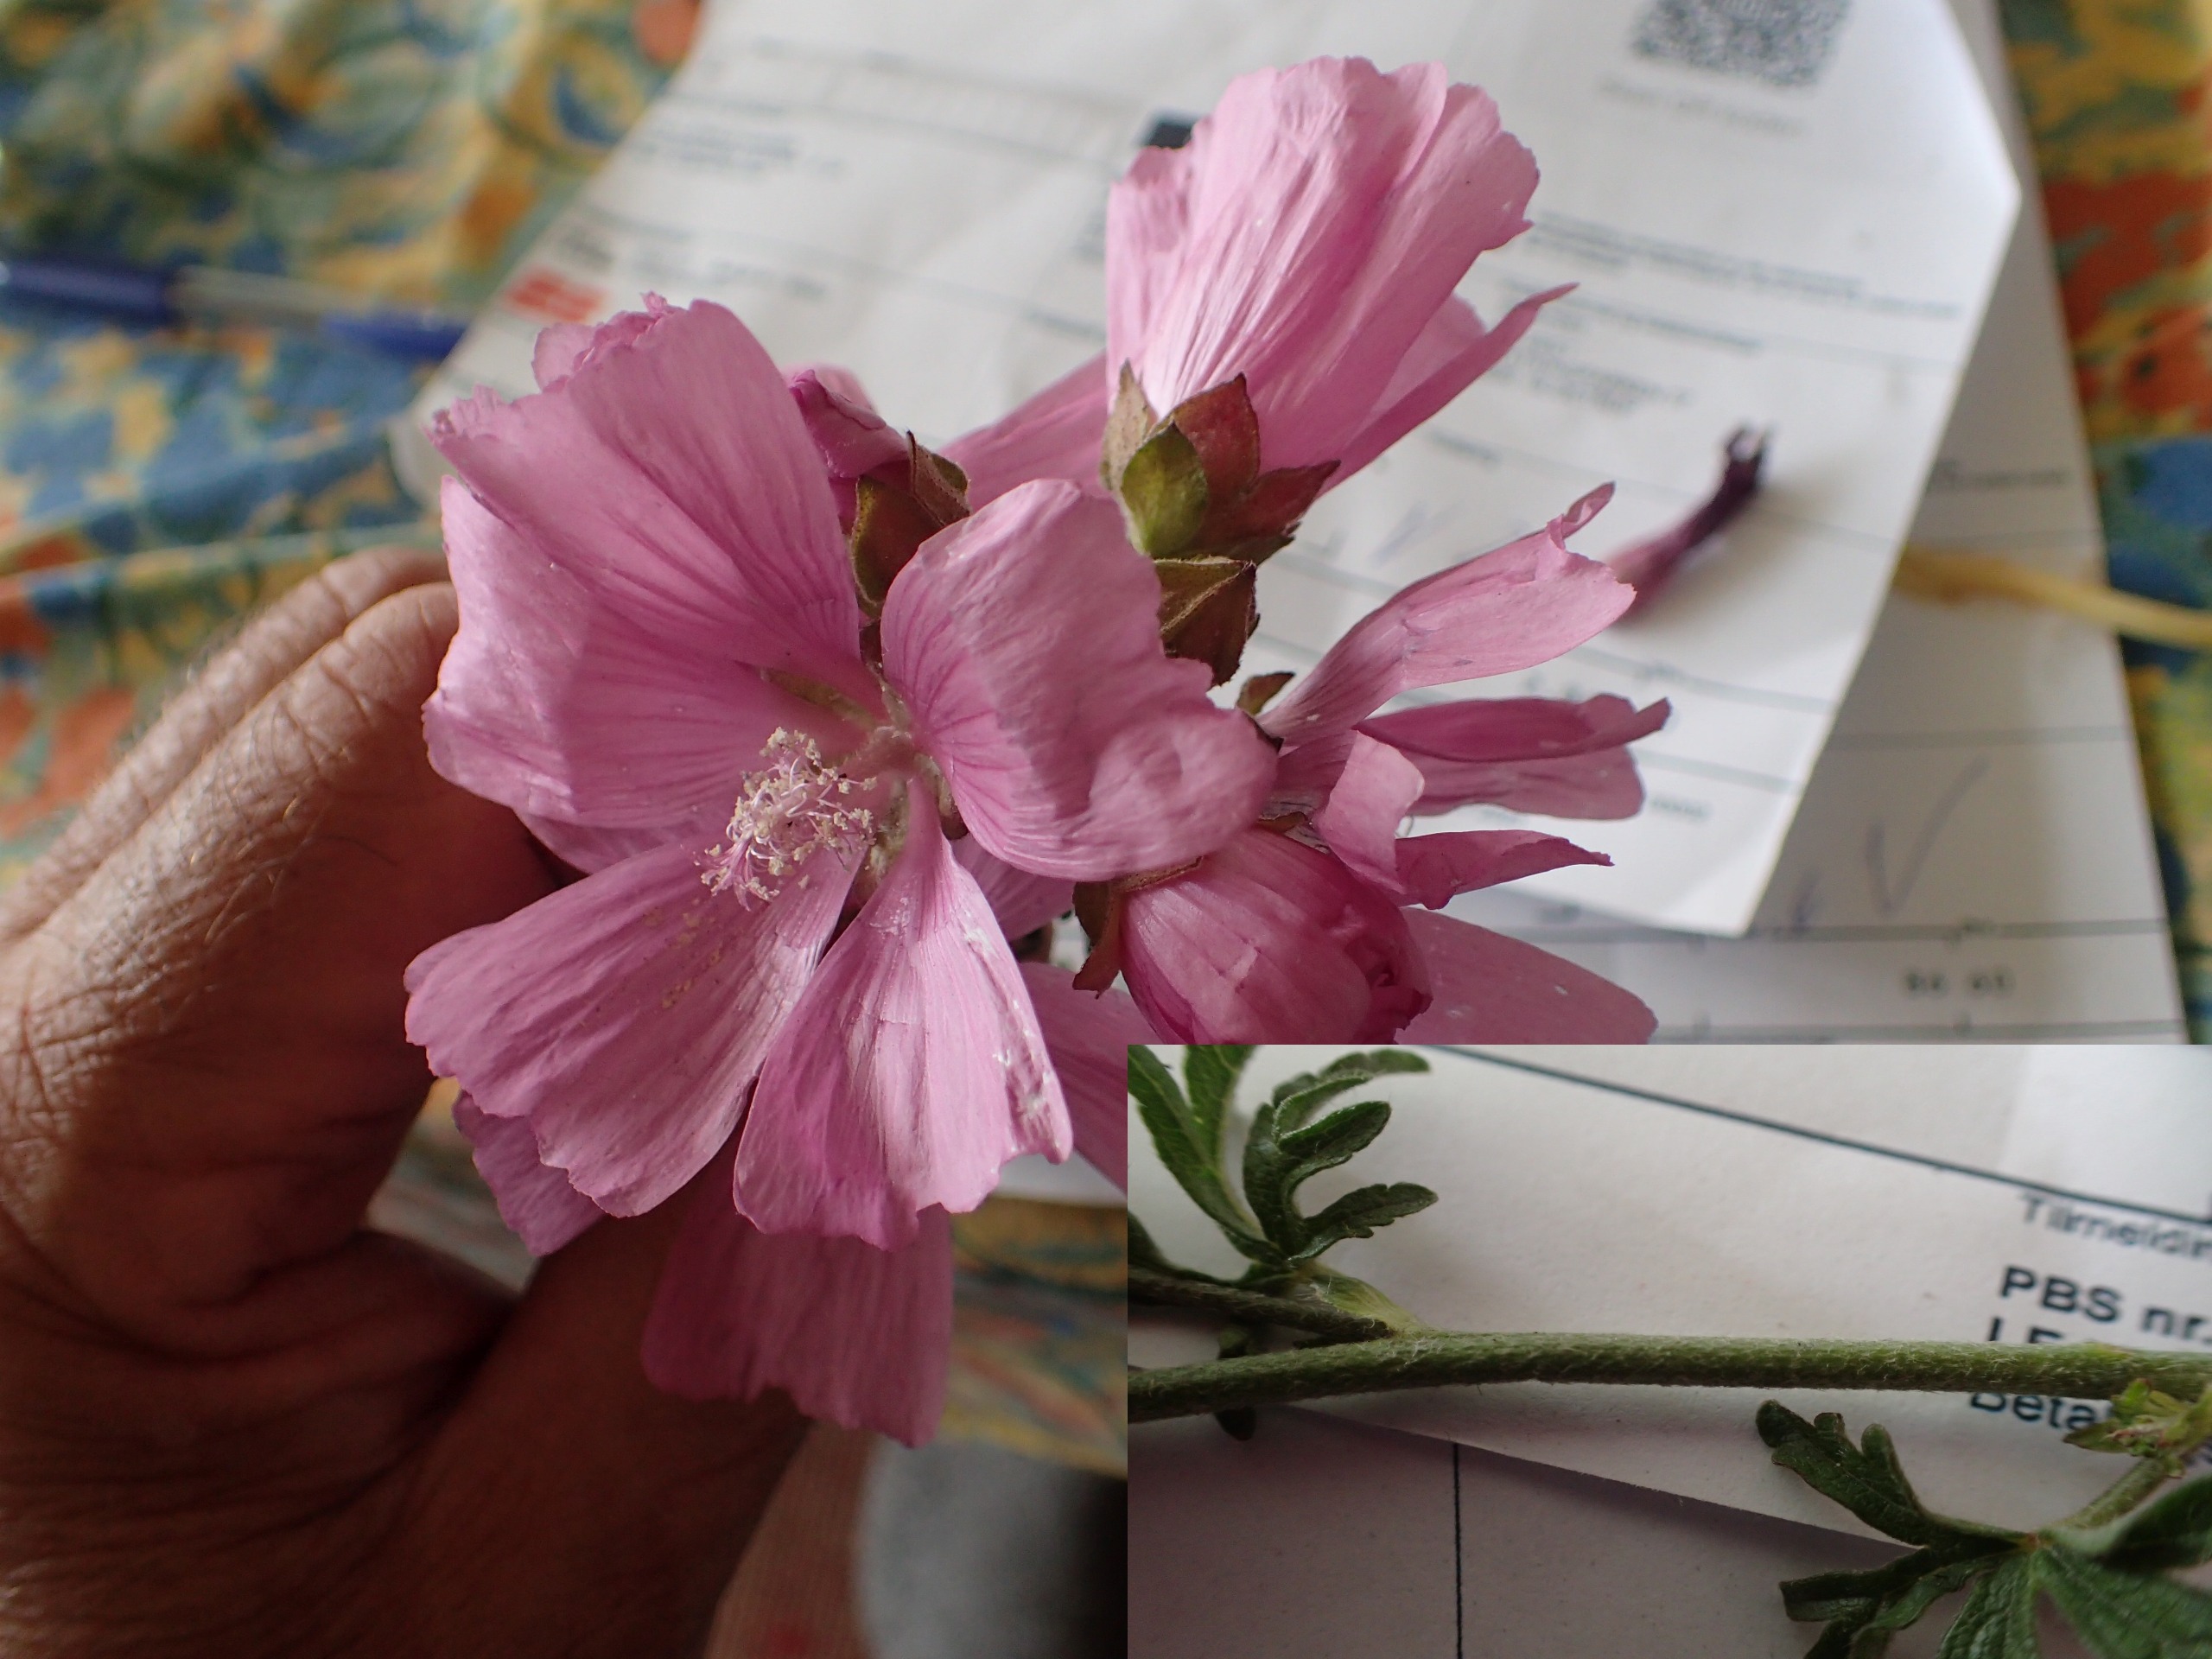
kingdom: Plantae
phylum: Tracheophyta
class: Magnoliopsida
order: Malvales
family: Malvaceae
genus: Malva
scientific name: Malva alcea
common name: Rosen-katost
